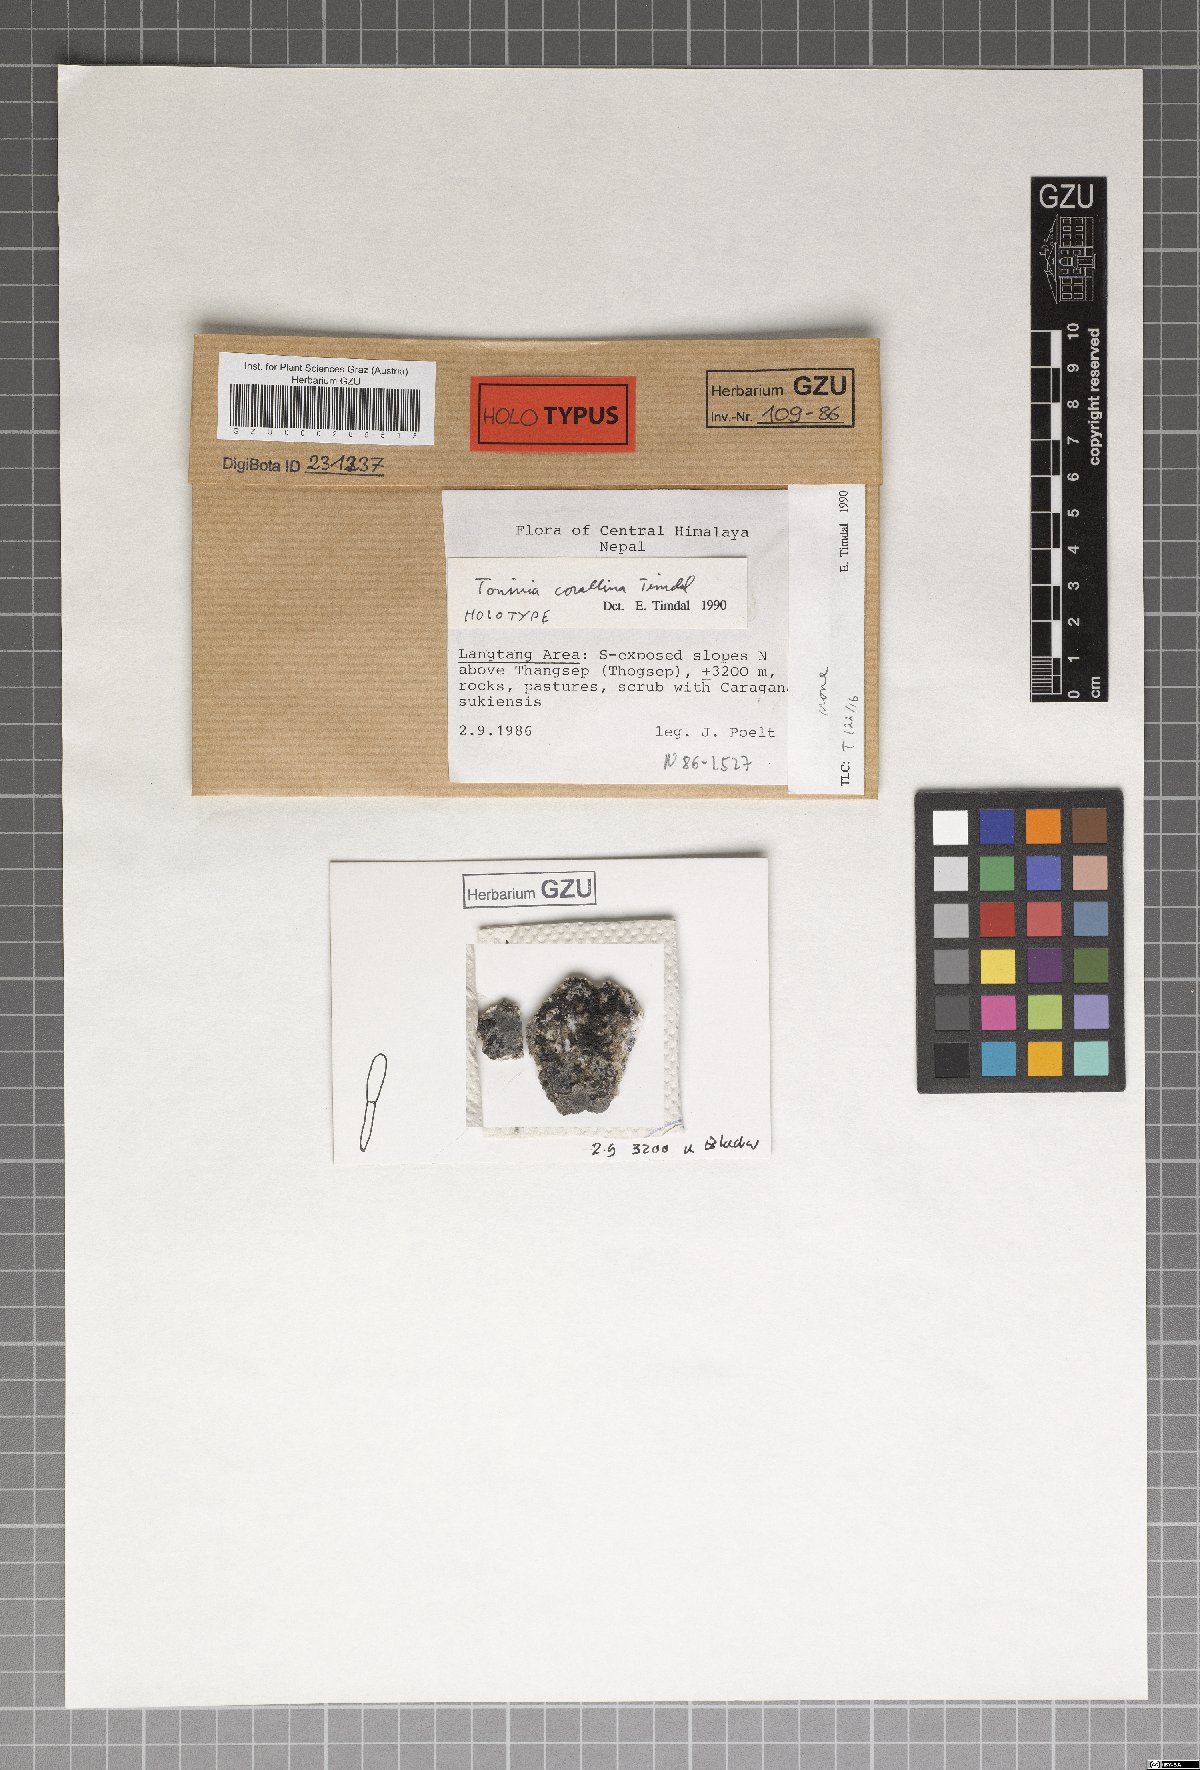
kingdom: Fungi
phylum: Ascomycota
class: Lecanoromycetes
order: Lecanorales
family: Ramalinaceae
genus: Toninia
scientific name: Toninia corallina
